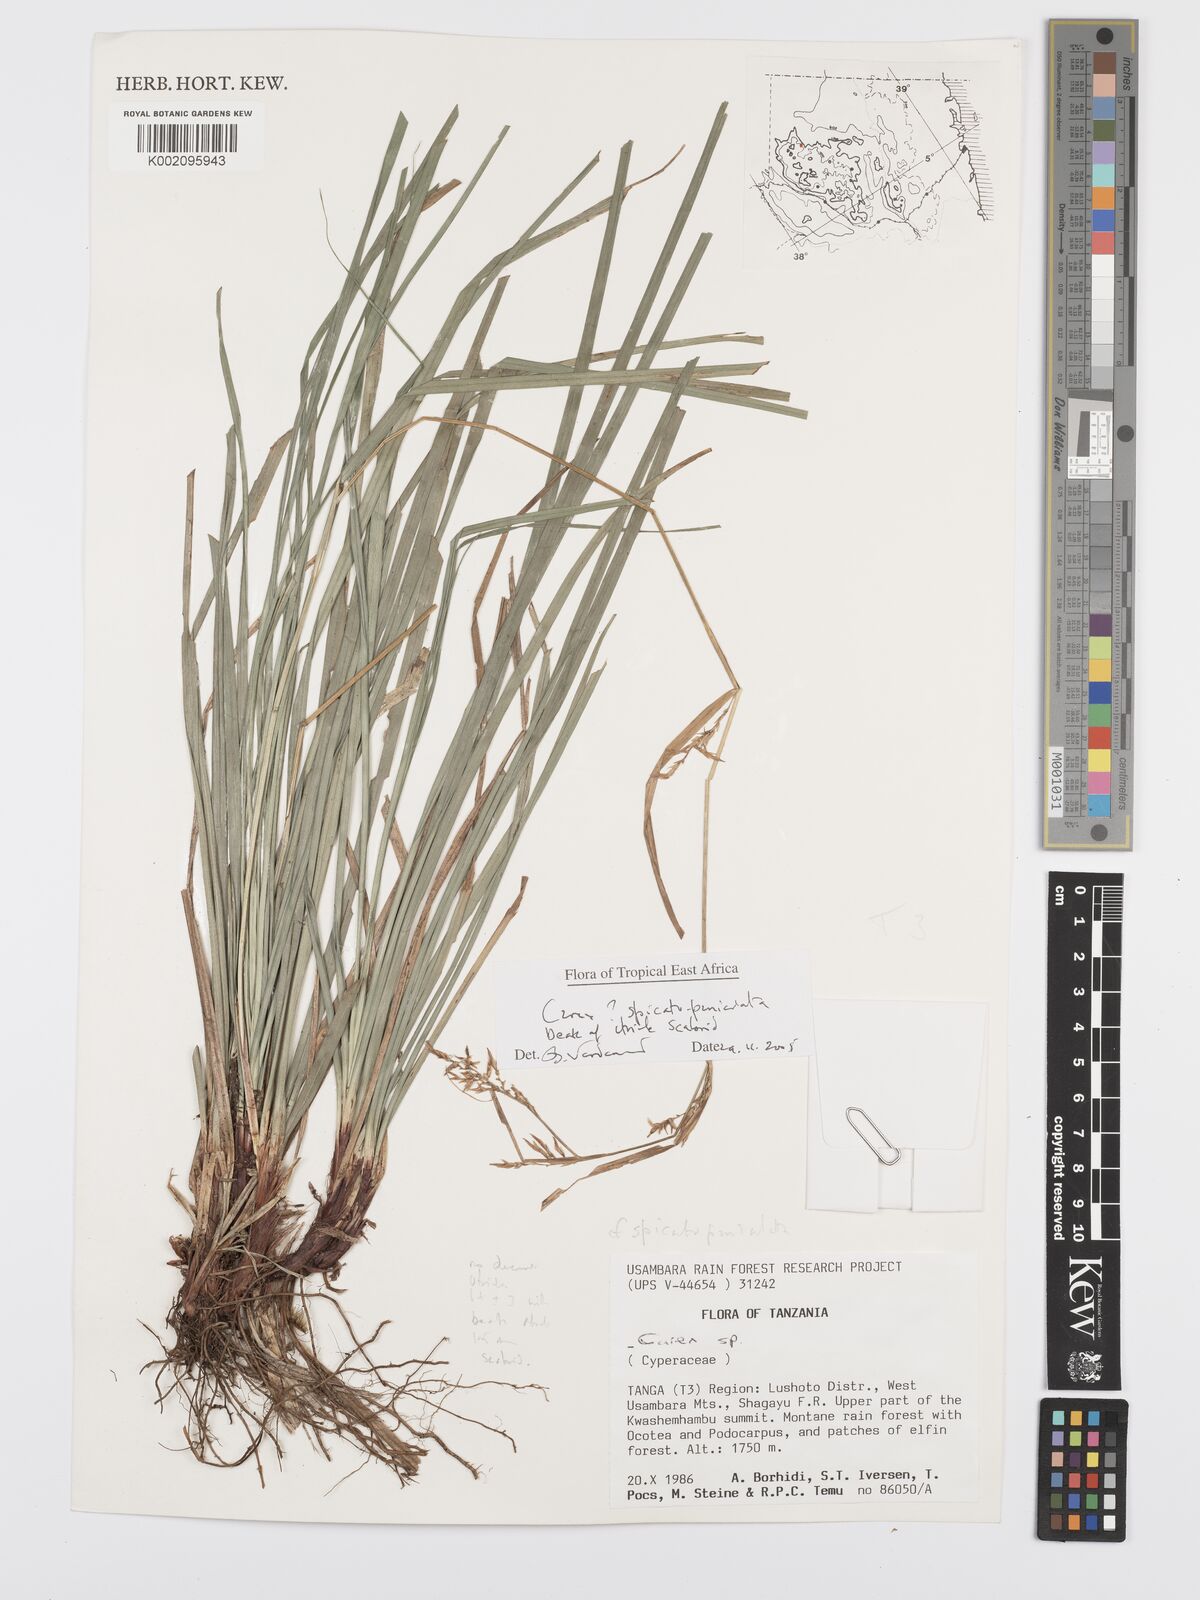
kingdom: Plantae
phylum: Tracheophyta
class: Liliopsida
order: Poales
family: Cyperaceae
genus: Carex
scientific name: Carex spicatopaniculata
